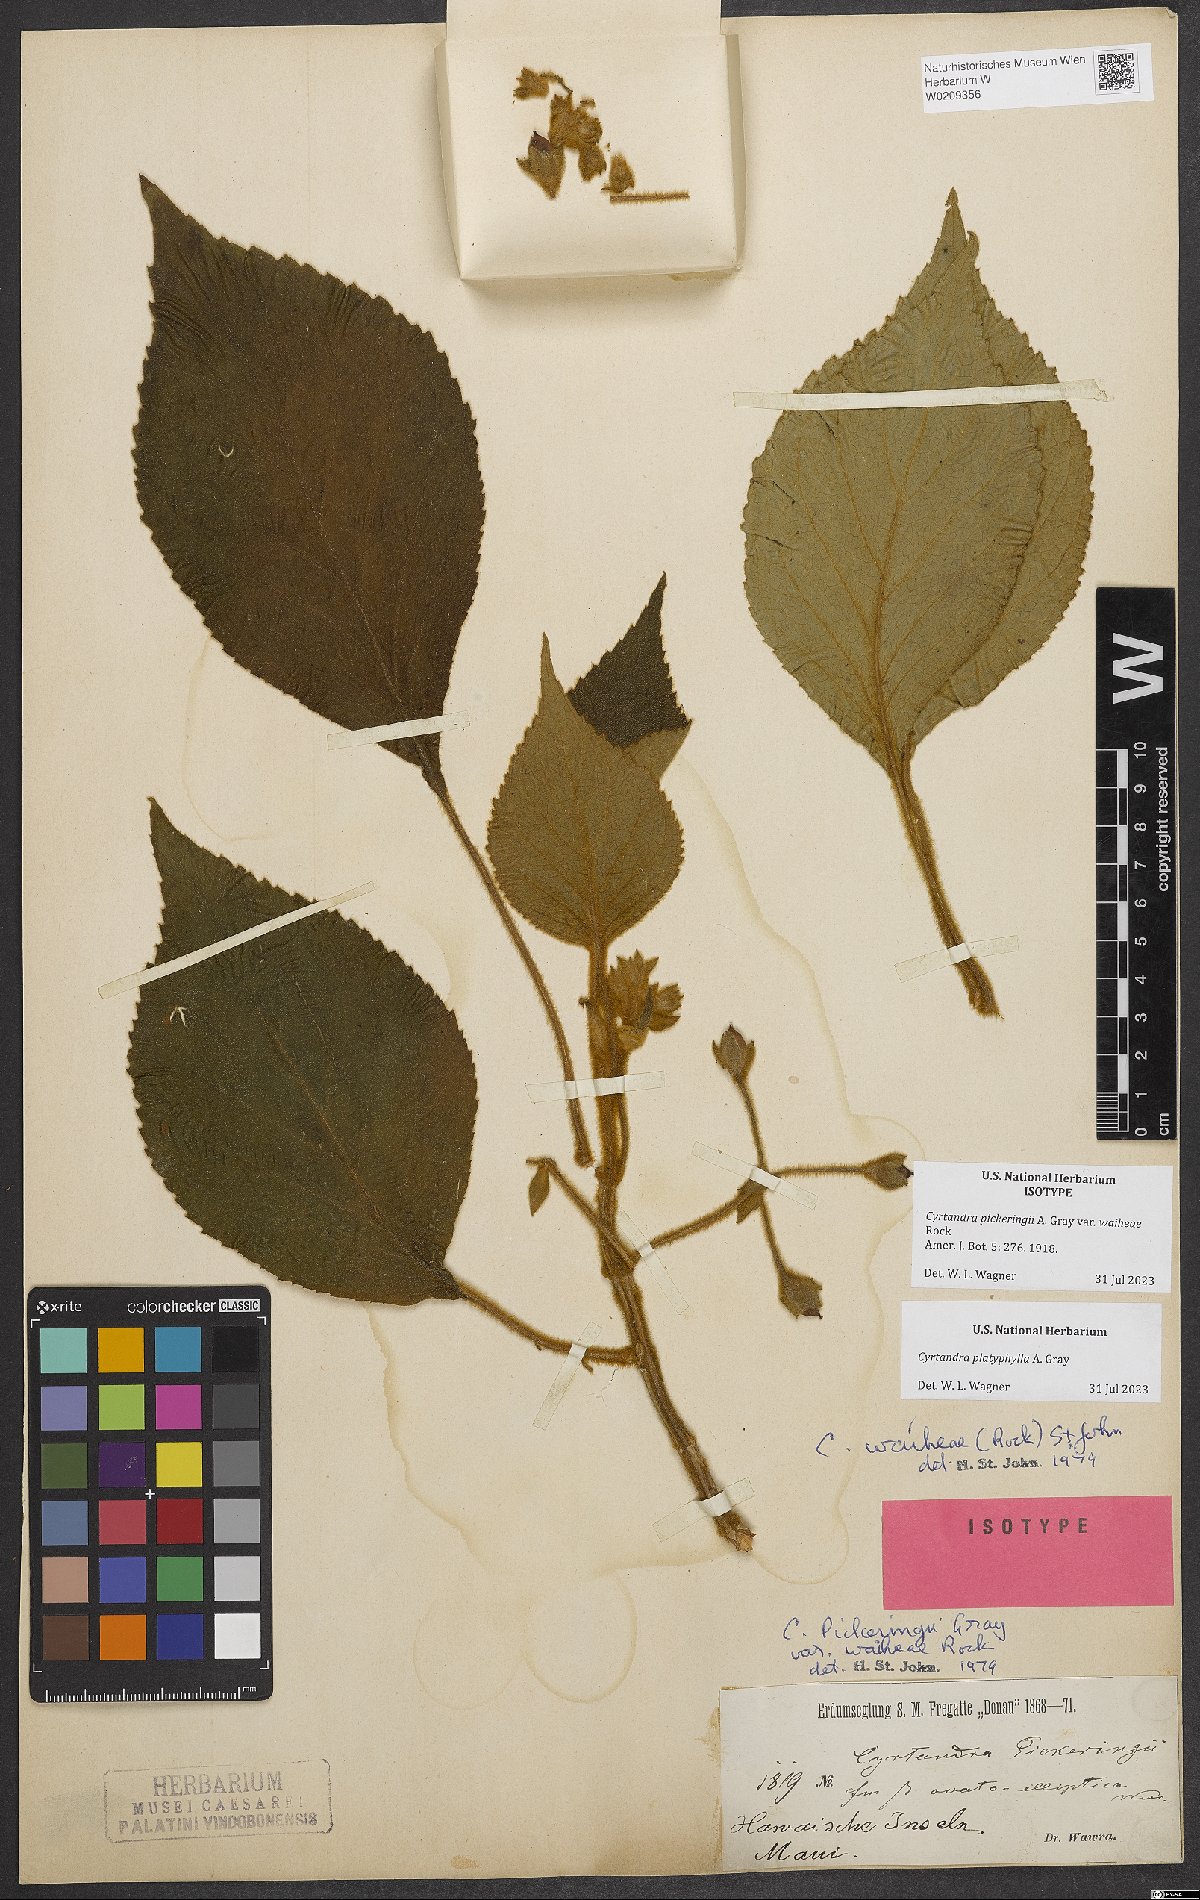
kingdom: Plantae
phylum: Tracheophyta
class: Magnoliopsida
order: Lamiales
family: Gesneriaceae
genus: Cyrtandra
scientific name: Cyrtandra platyphylla
